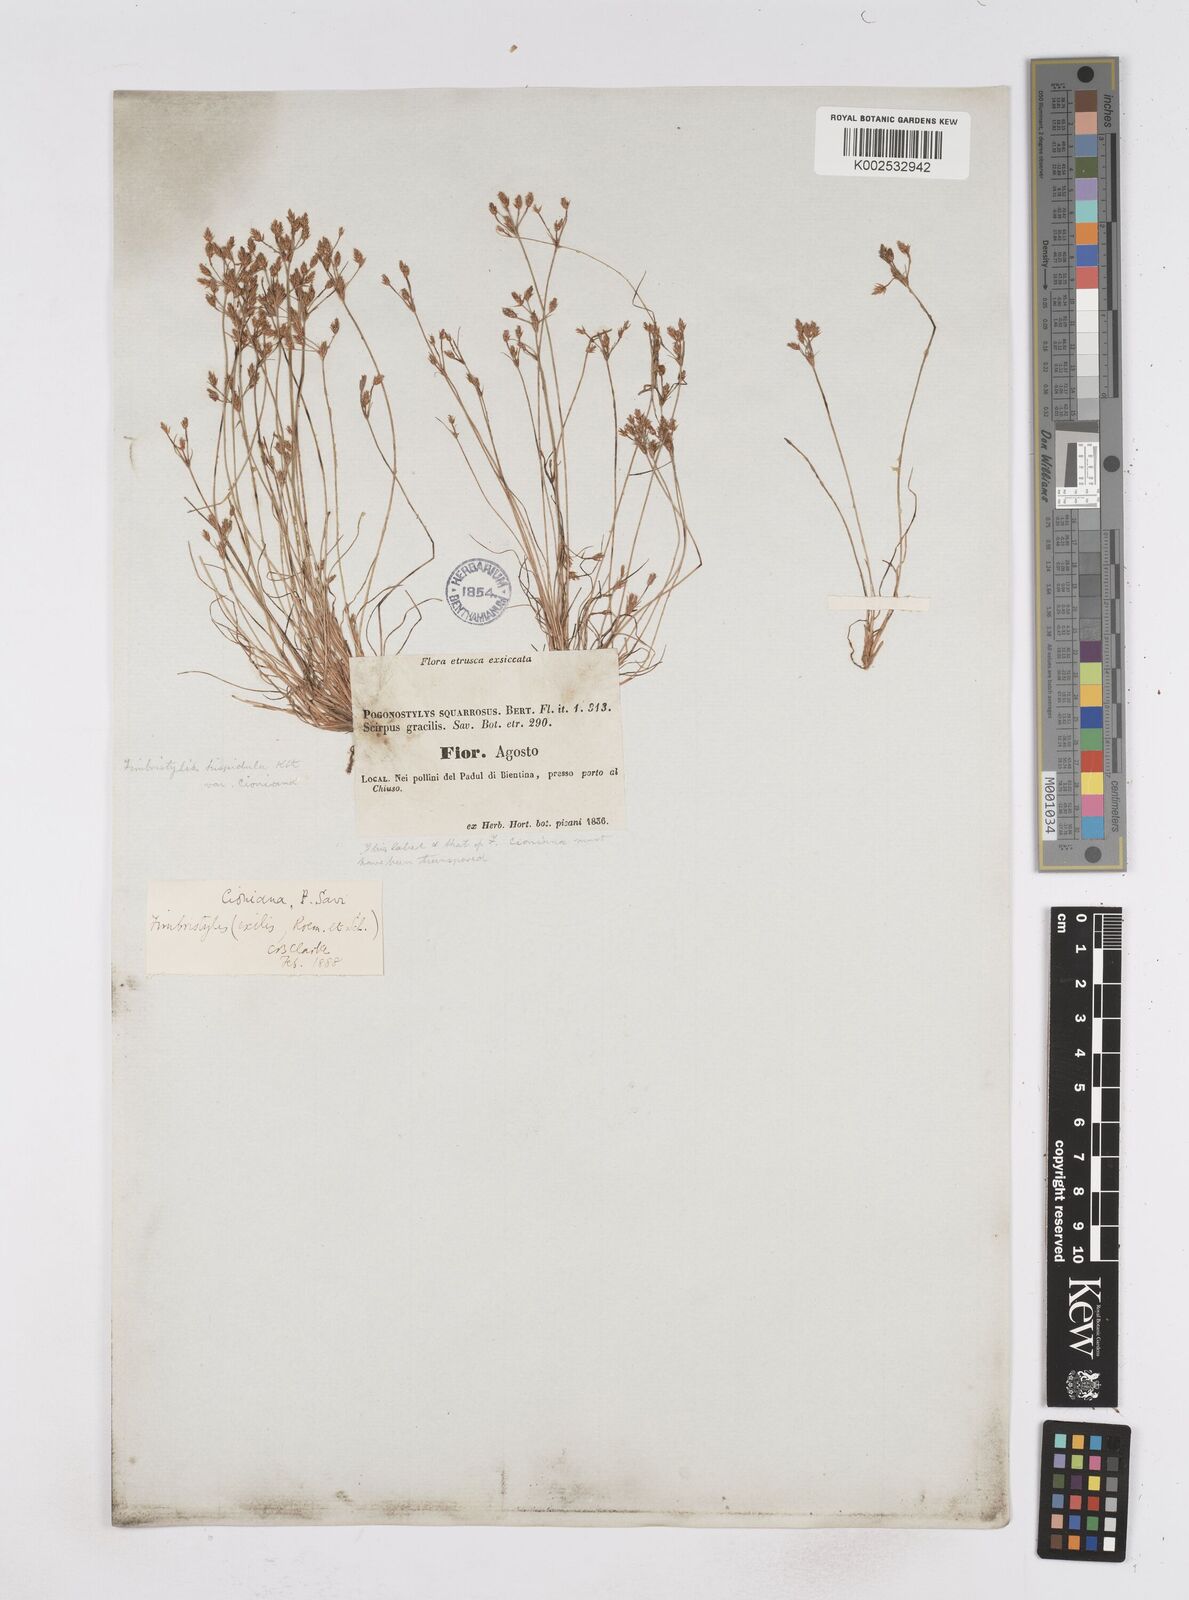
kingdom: Plantae
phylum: Tracheophyta
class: Liliopsida
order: Poales
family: Cyperaceae
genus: Bulbostylis
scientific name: Bulbostylis cioniana
